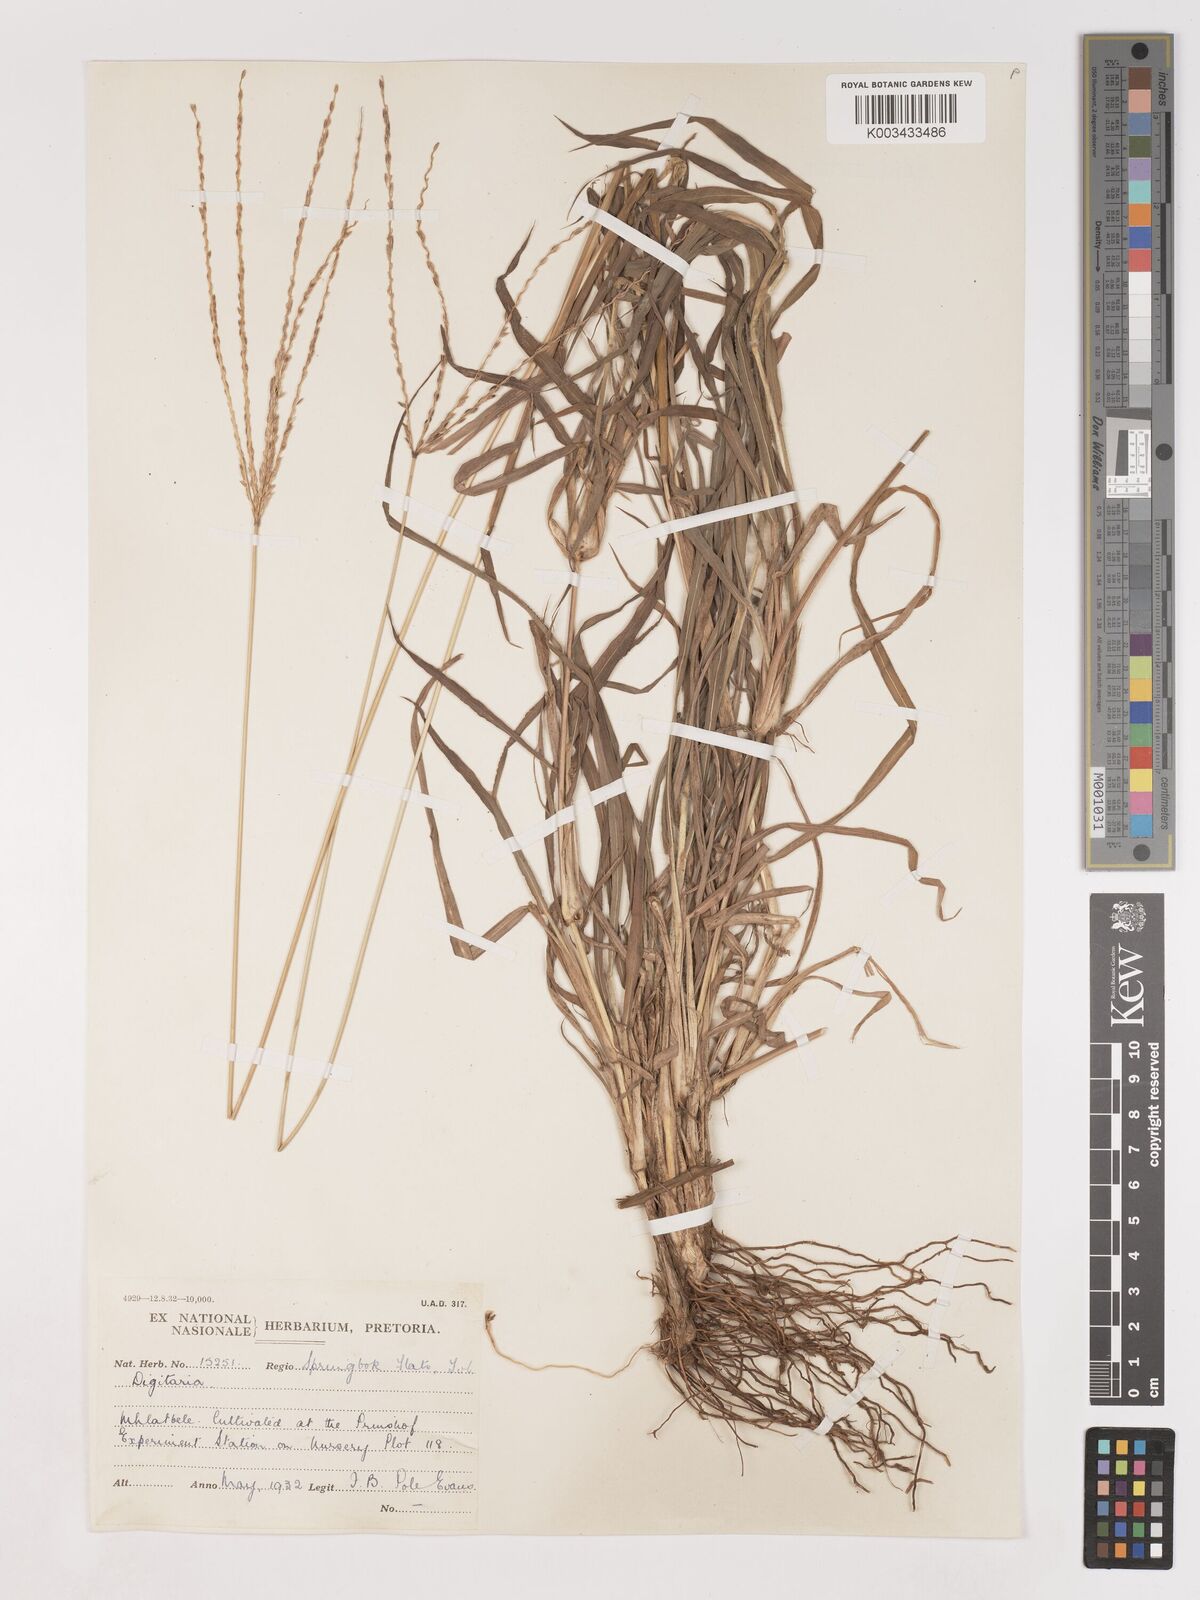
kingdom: Plantae
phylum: Tracheophyta
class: Liliopsida
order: Poales
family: Poaceae
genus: Digitaria
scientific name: Digitaria eriantha
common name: Digitgrass
